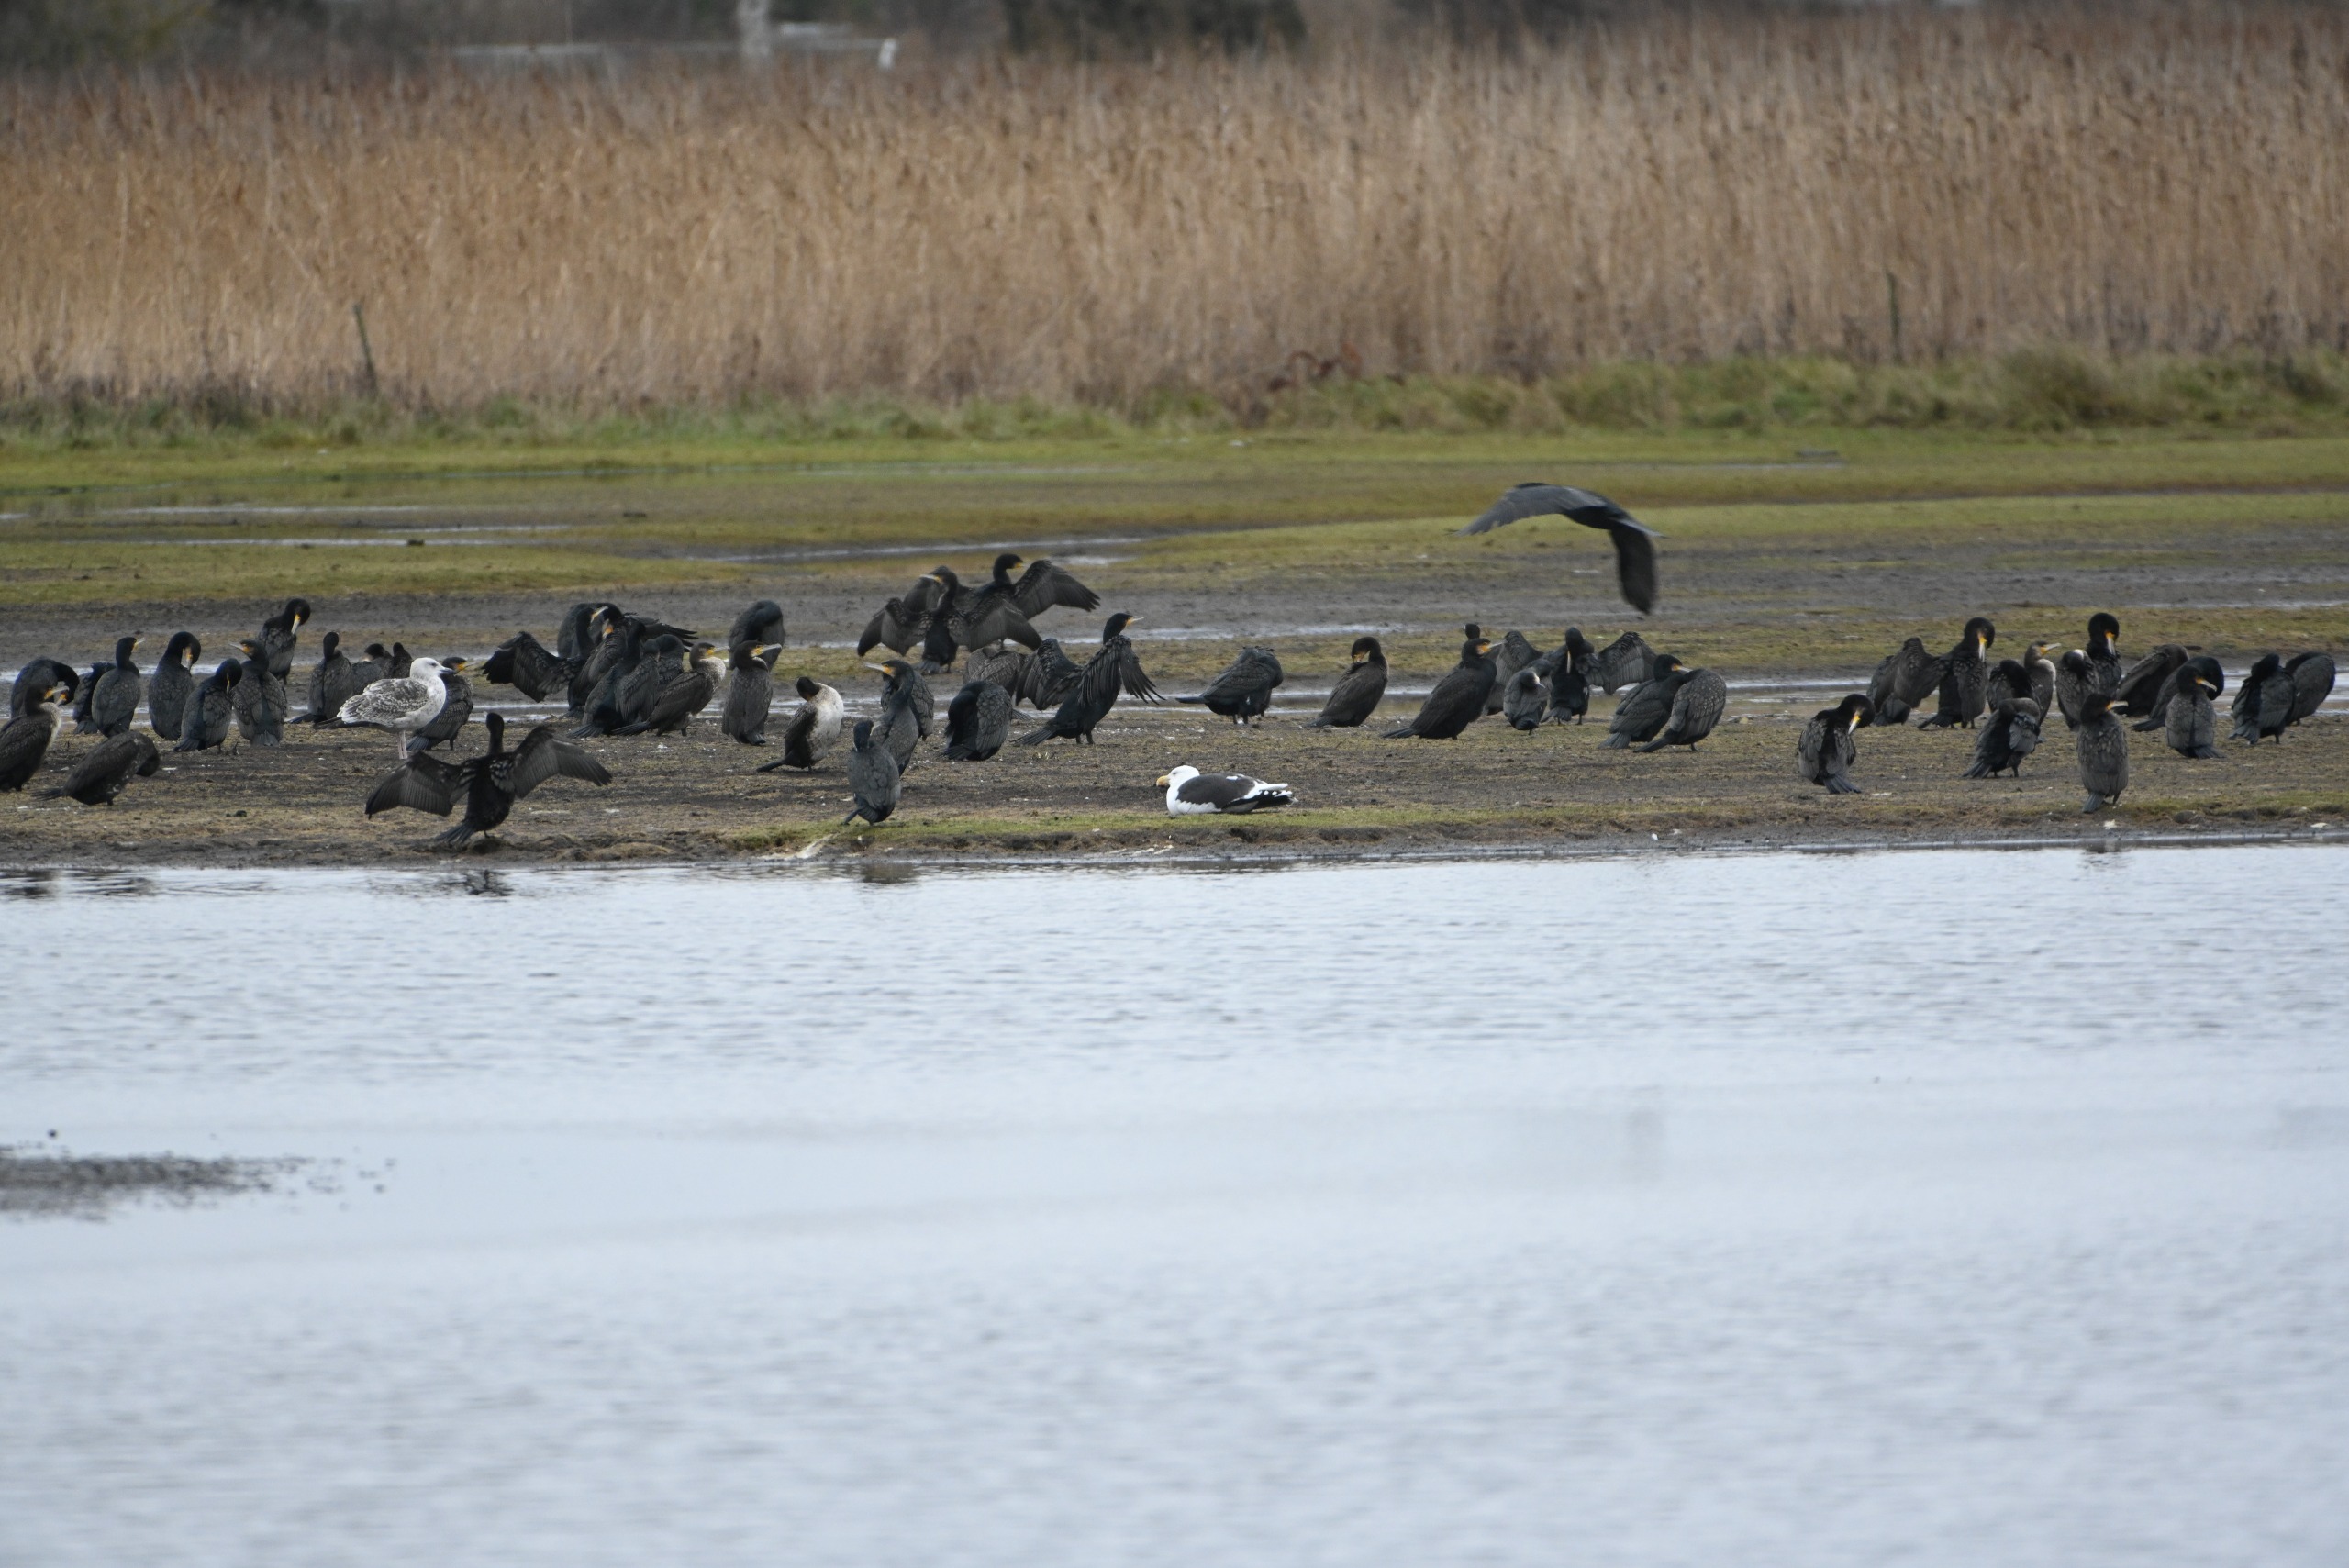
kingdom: Animalia
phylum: Chordata
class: Aves
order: Suliformes
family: Phalacrocoracidae
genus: Phalacrocorax
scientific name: Phalacrocorax carbo
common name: Skarv
